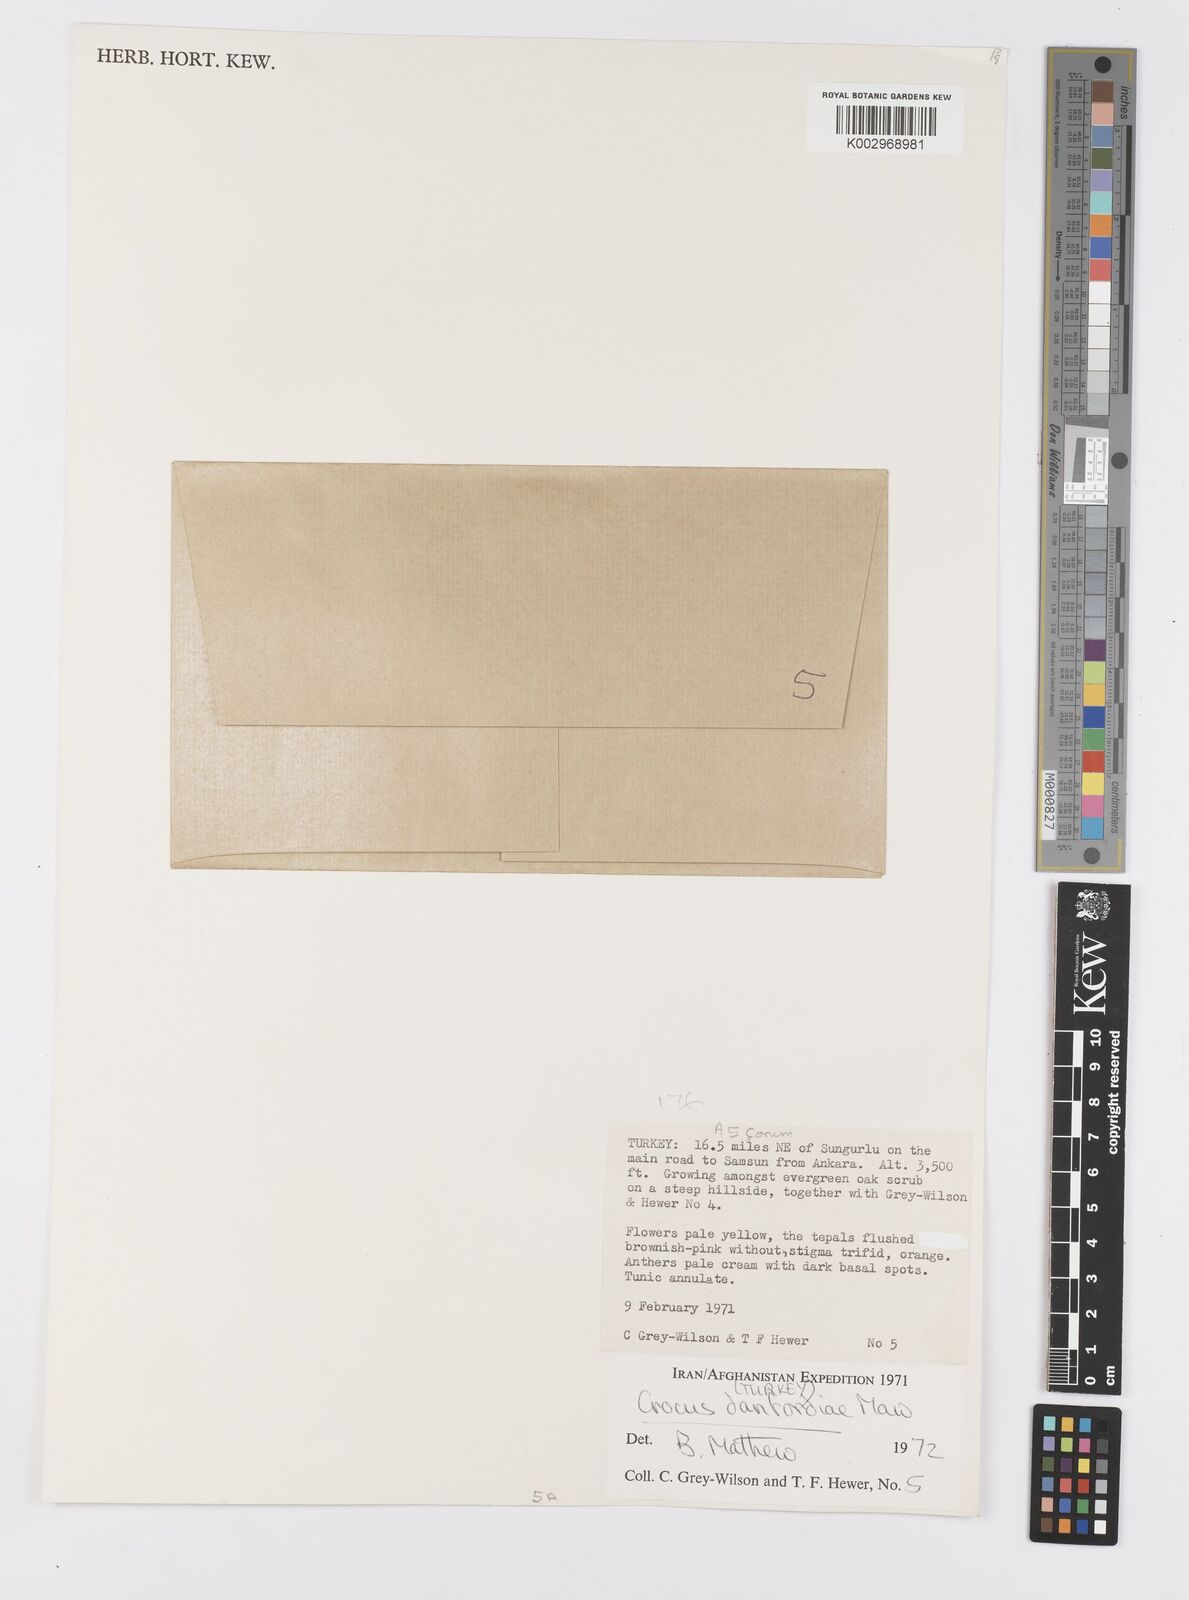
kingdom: Plantae
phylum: Tracheophyta
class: Liliopsida
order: Asparagales
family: Iridaceae
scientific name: Iridaceae
